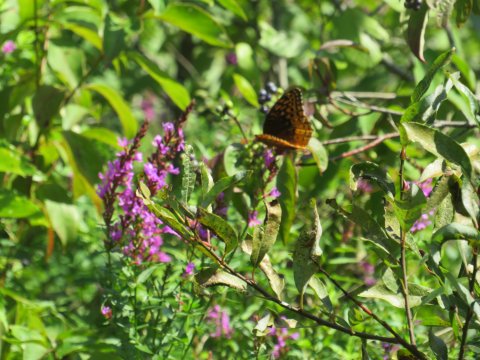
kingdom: Animalia
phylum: Arthropoda
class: Insecta
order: Lepidoptera
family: Nymphalidae
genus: Speyeria
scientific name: Speyeria cybele
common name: Great Spangled Fritillary
